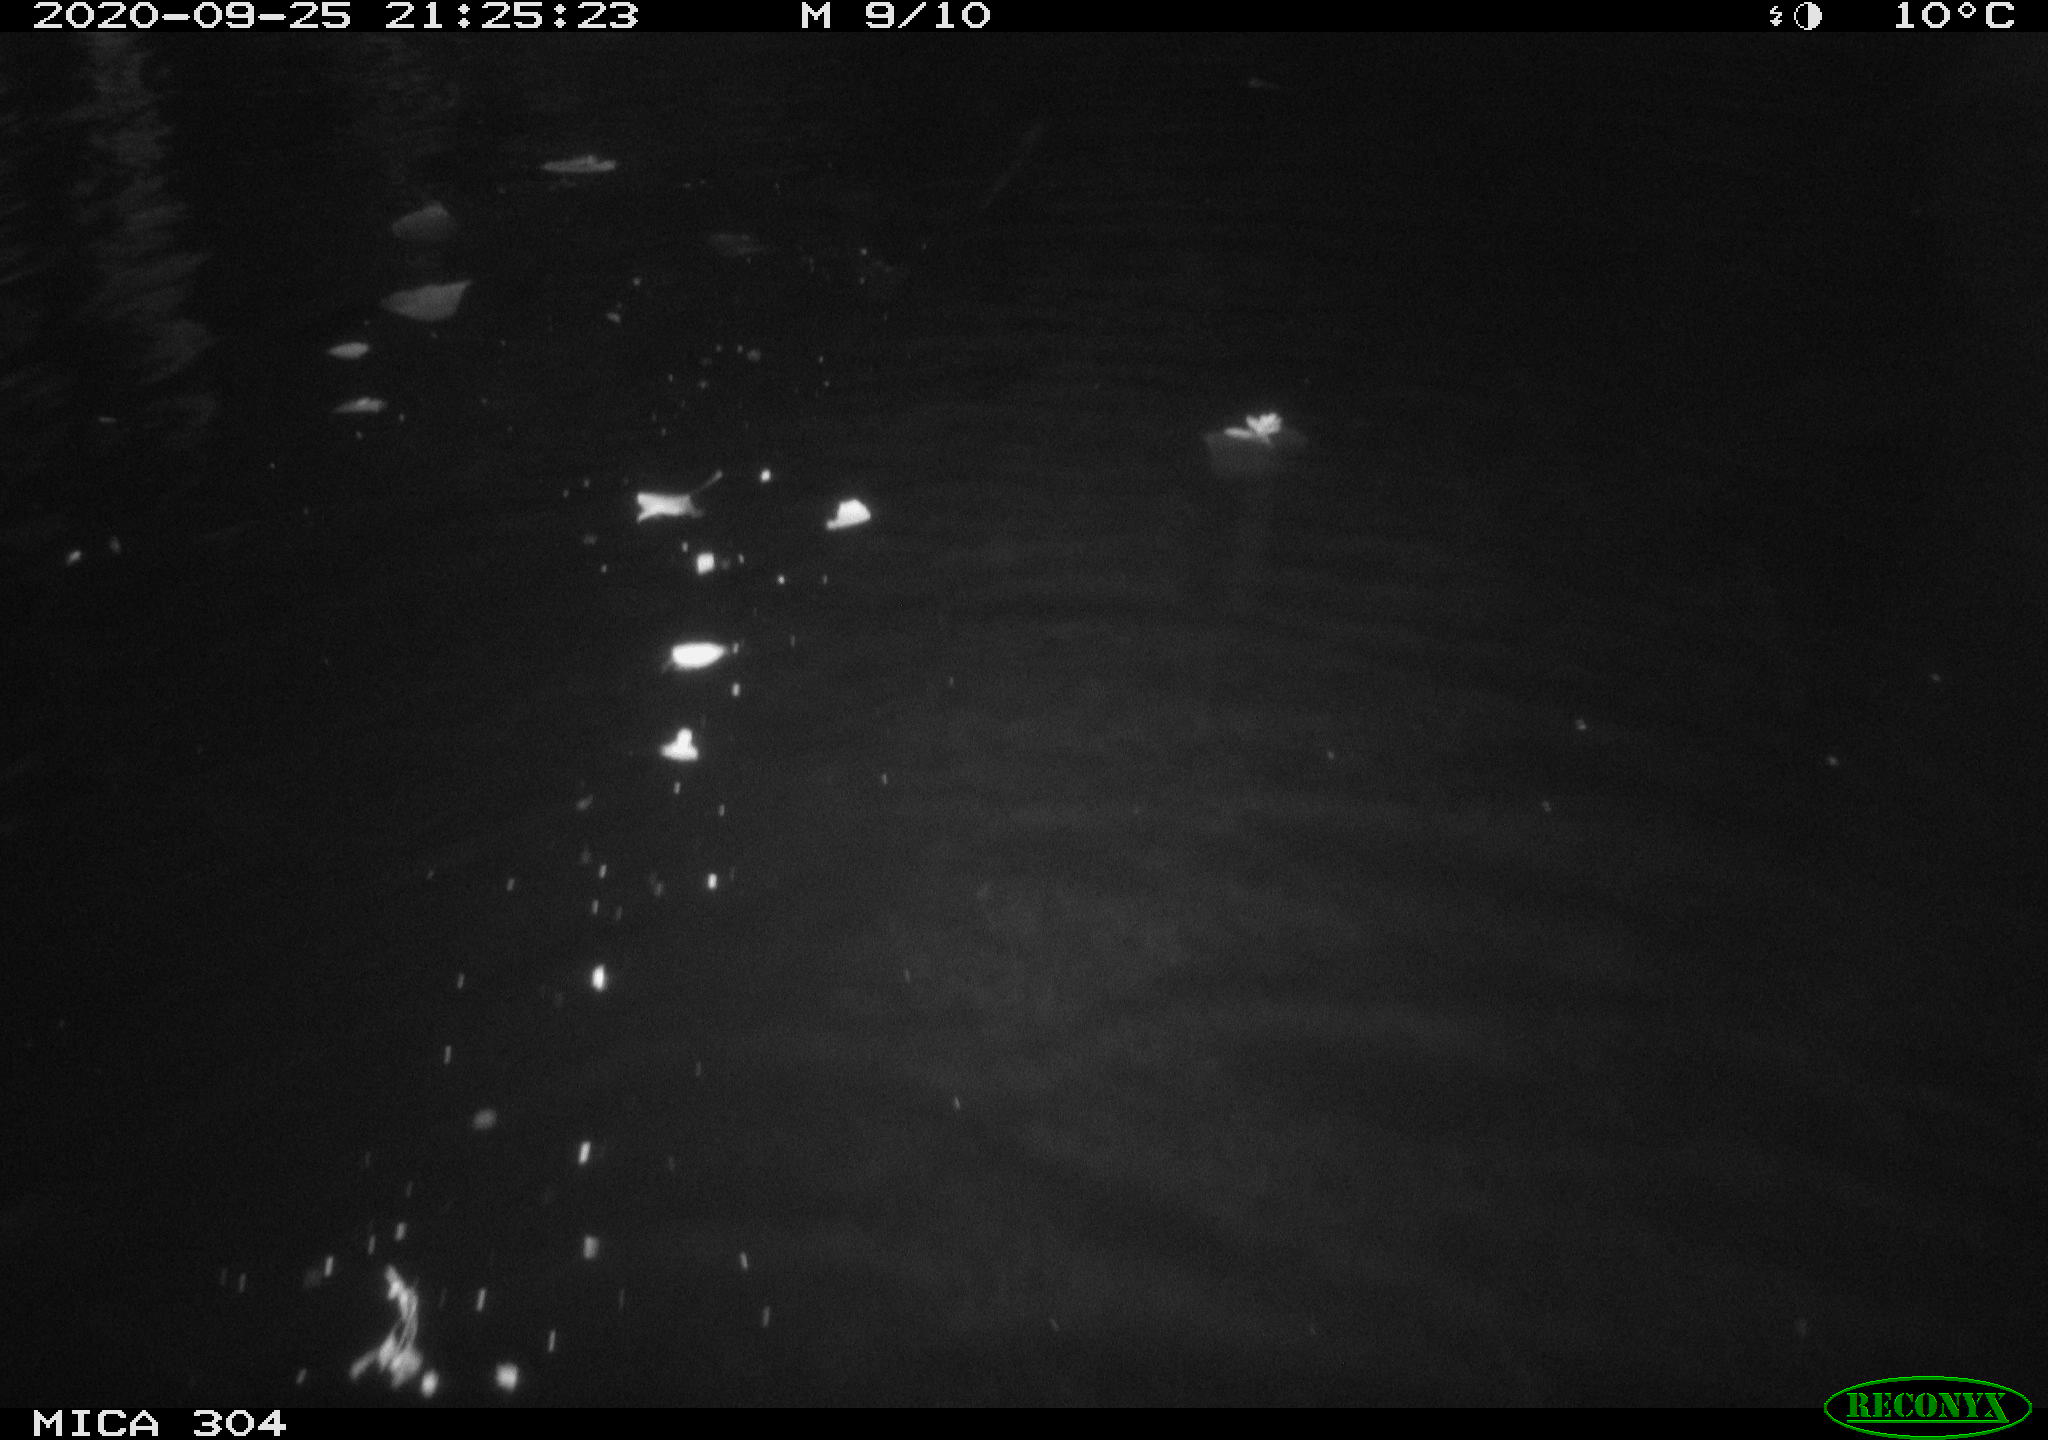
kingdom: Animalia
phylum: Chordata
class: Mammalia
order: Rodentia
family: Muridae
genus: Rattus
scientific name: Rattus norvegicus
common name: Brown rat
